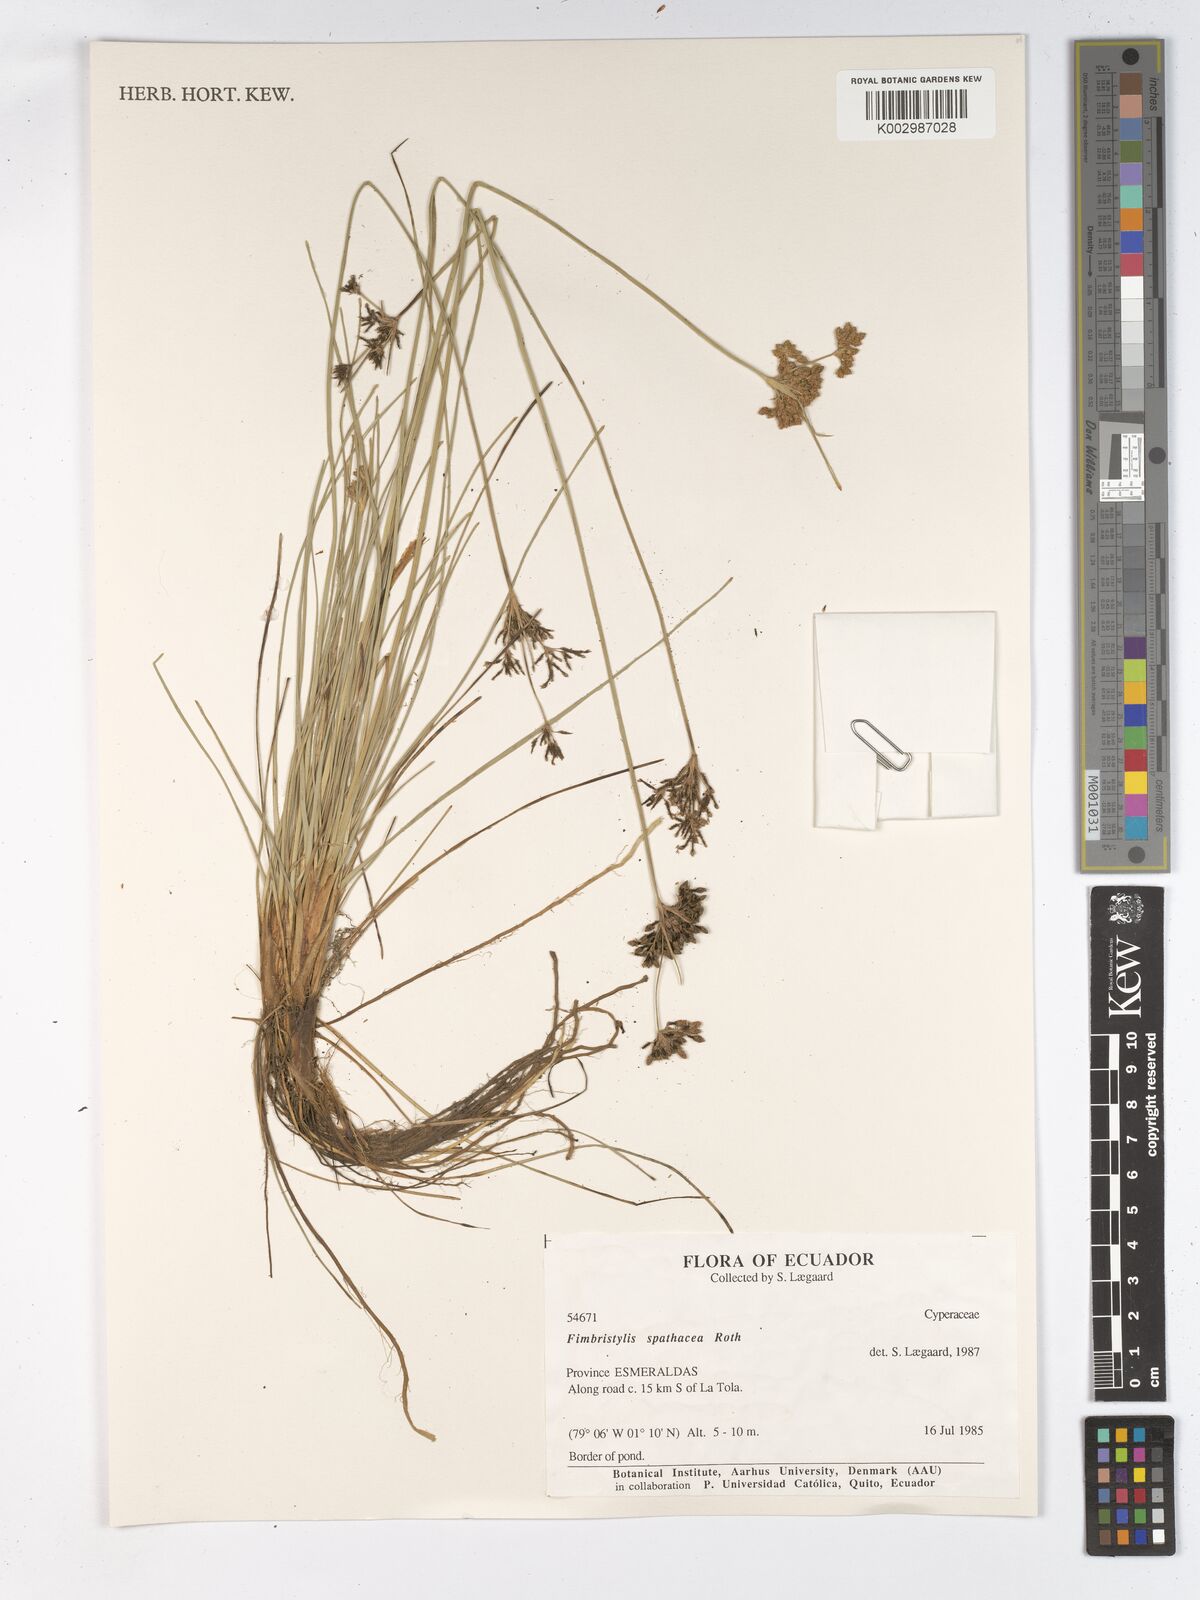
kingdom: Plantae
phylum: Tracheophyta
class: Liliopsida
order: Poales
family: Cyperaceae
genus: Fimbristylis
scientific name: Fimbristylis cymosa
